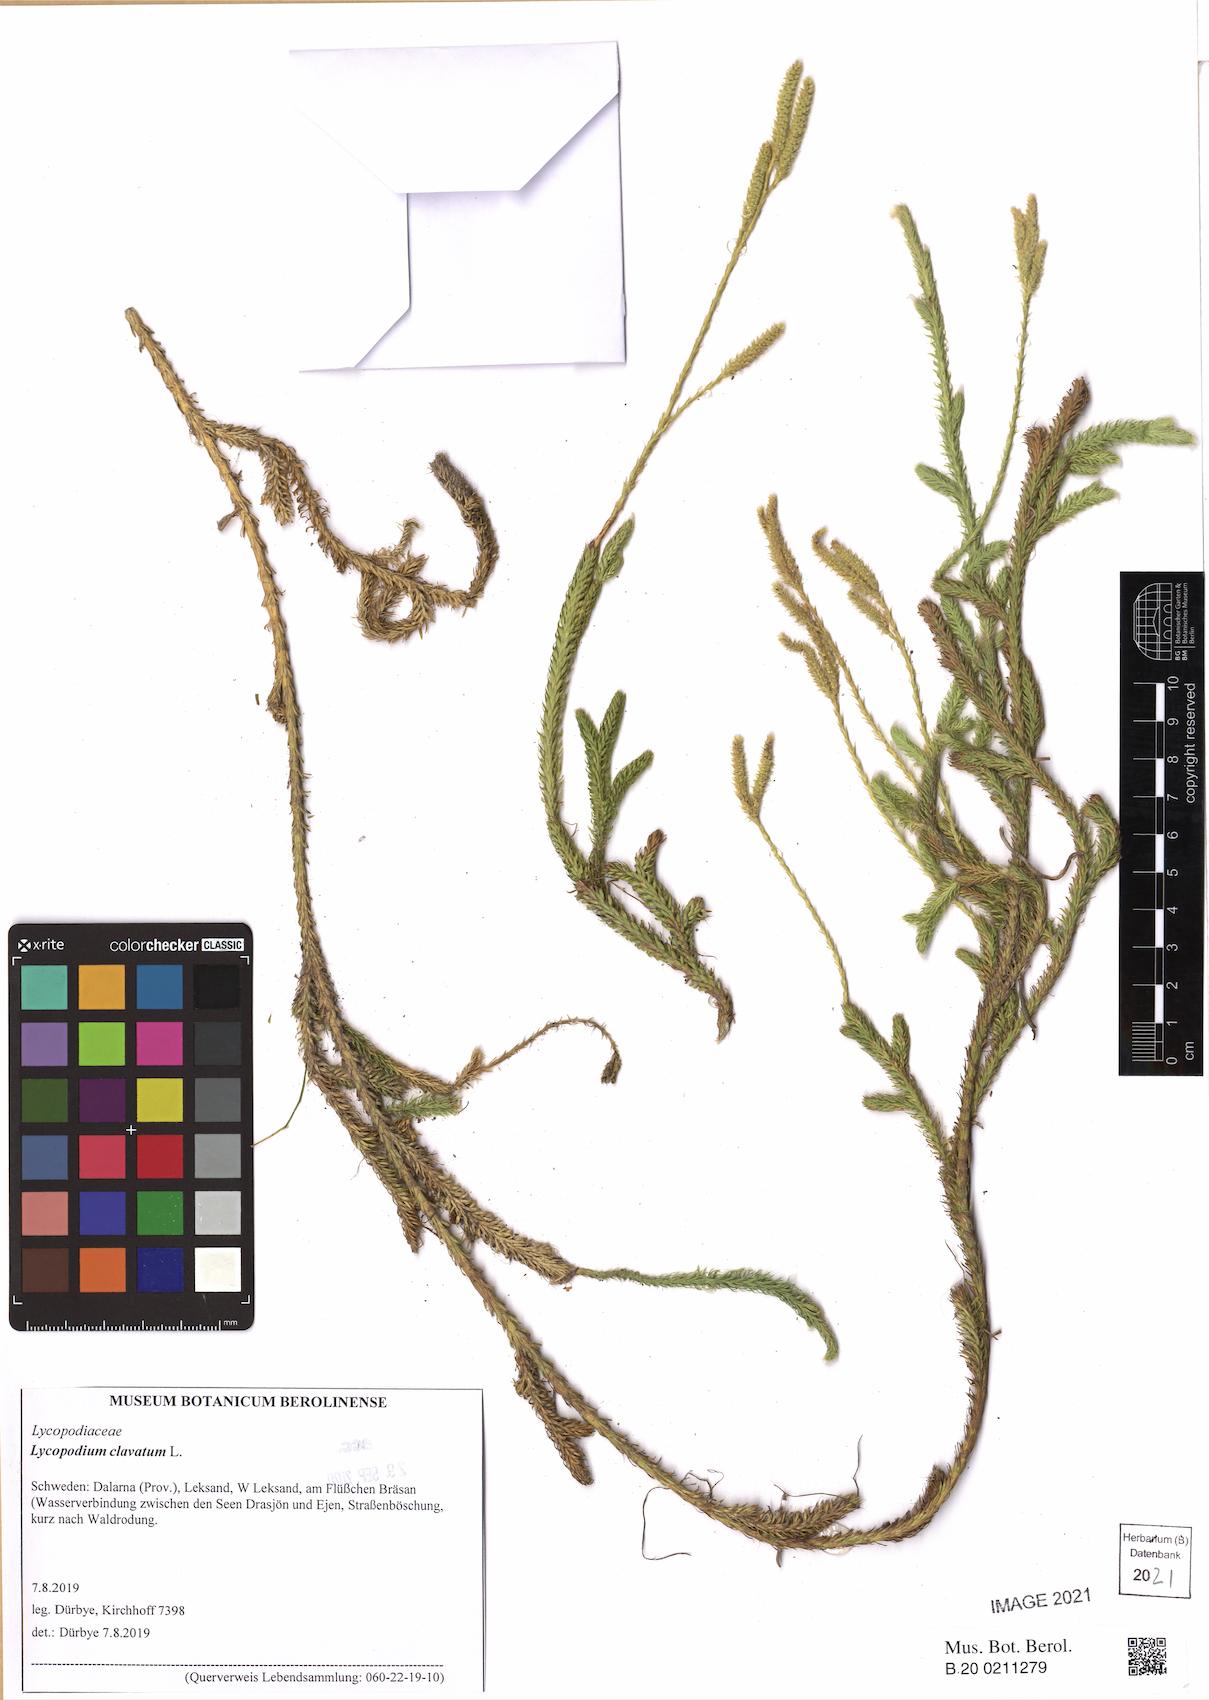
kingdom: Plantae
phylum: Tracheophyta
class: Lycopodiopsida
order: Lycopodiales
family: Lycopodiaceae
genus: Lycopodium
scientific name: Lycopodium clavatum
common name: Stag's-horn clubmoss
